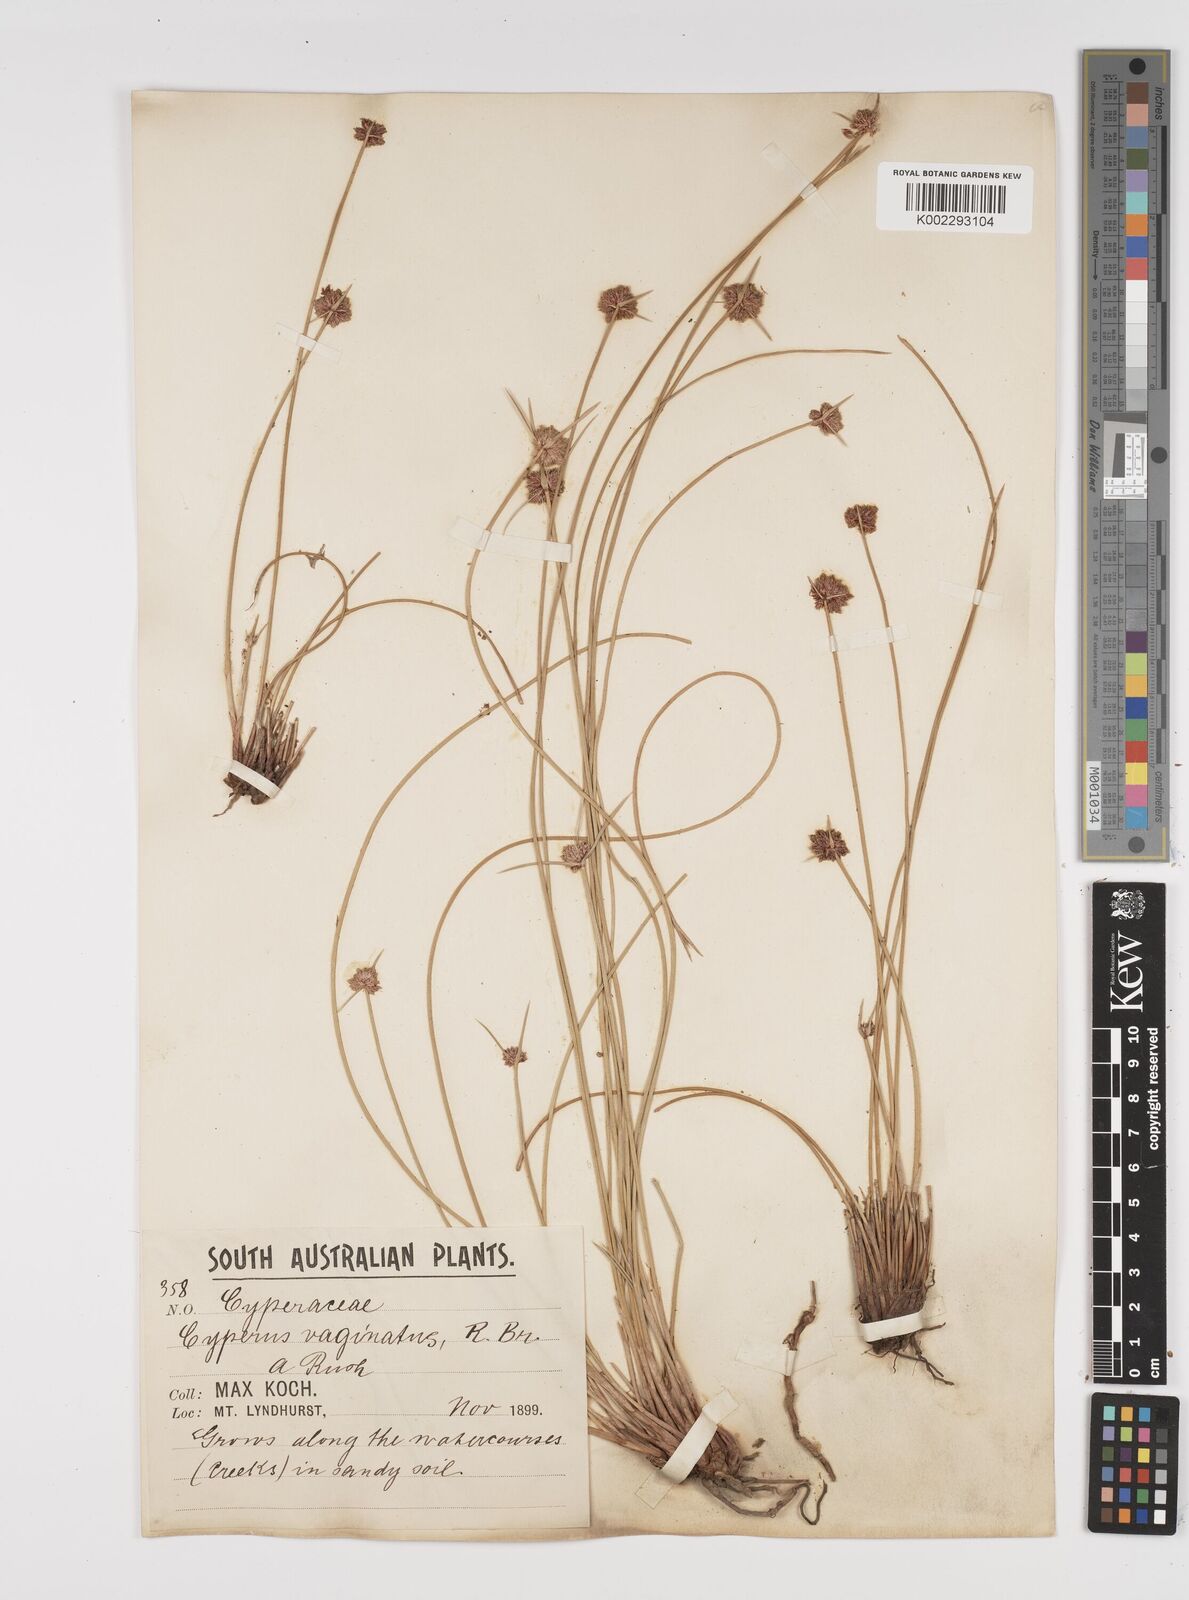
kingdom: Plantae
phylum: Tracheophyta
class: Liliopsida
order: Poales
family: Cyperaceae
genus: Cyperus
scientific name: Cyperus gymnocaulos
